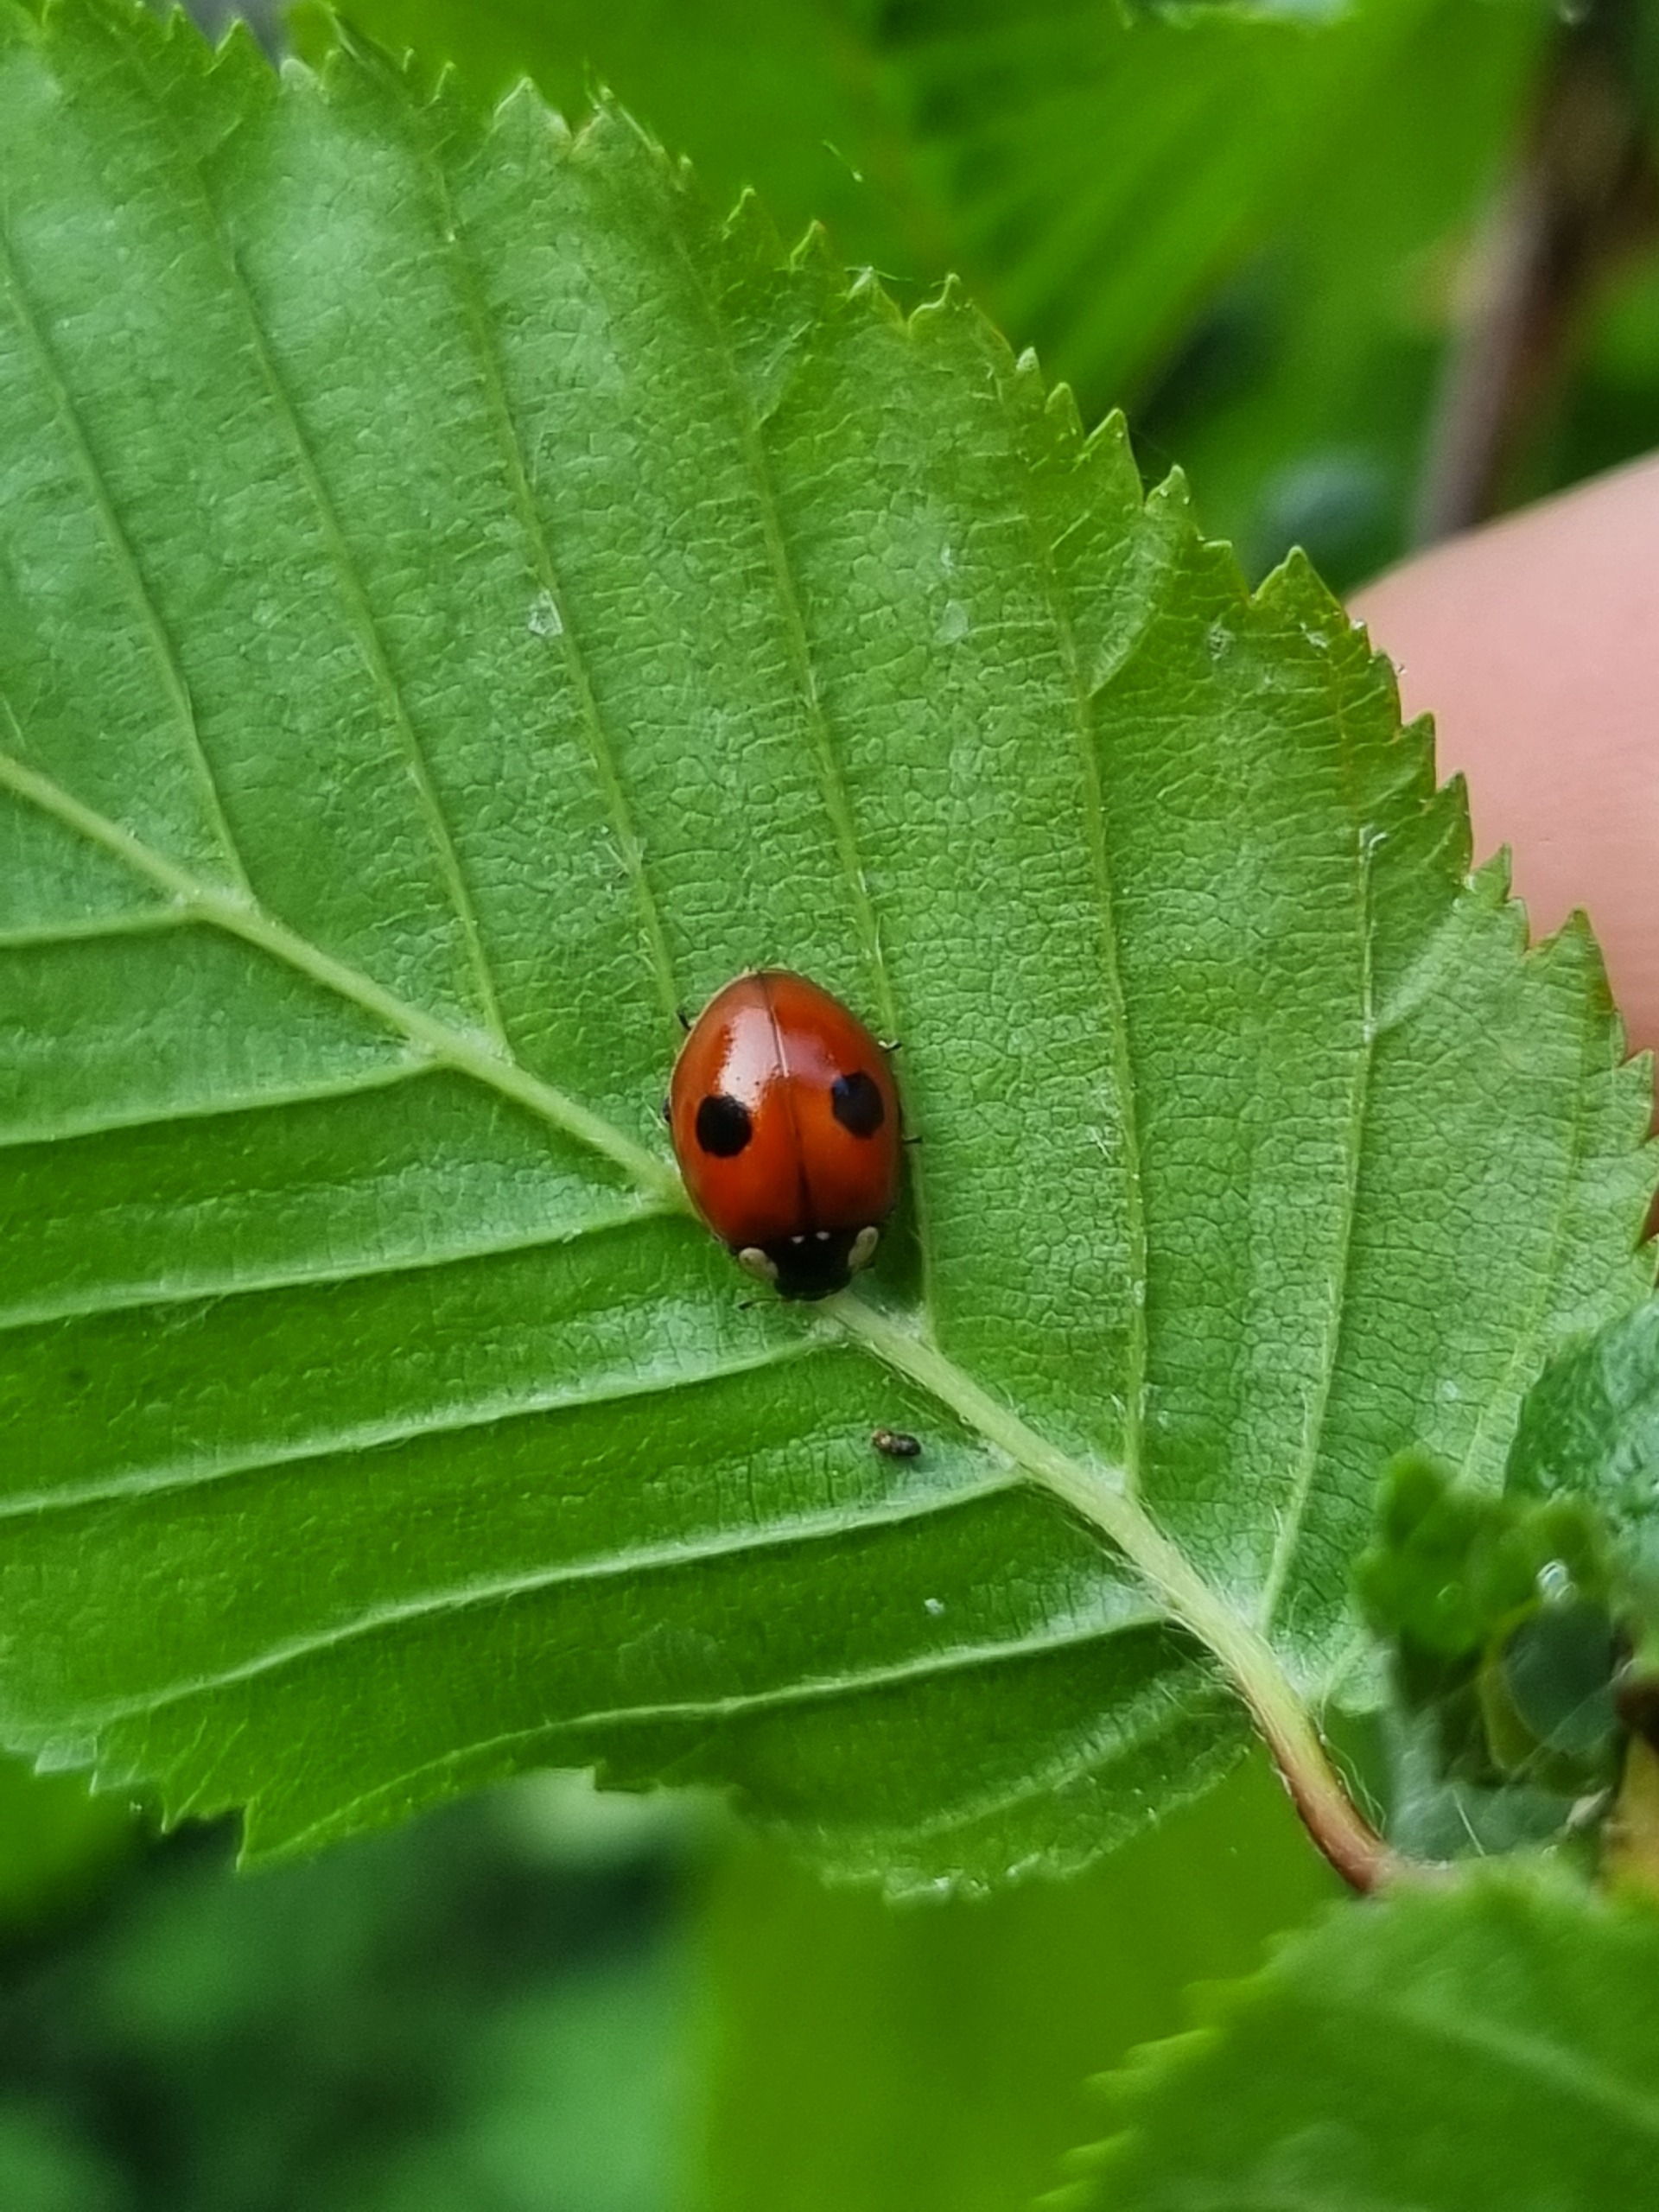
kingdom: Animalia
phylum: Arthropoda
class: Insecta
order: Coleoptera
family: Coccinellidae
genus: Adalia
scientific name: Adalia bipunctata
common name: Toplettet mariehøne
